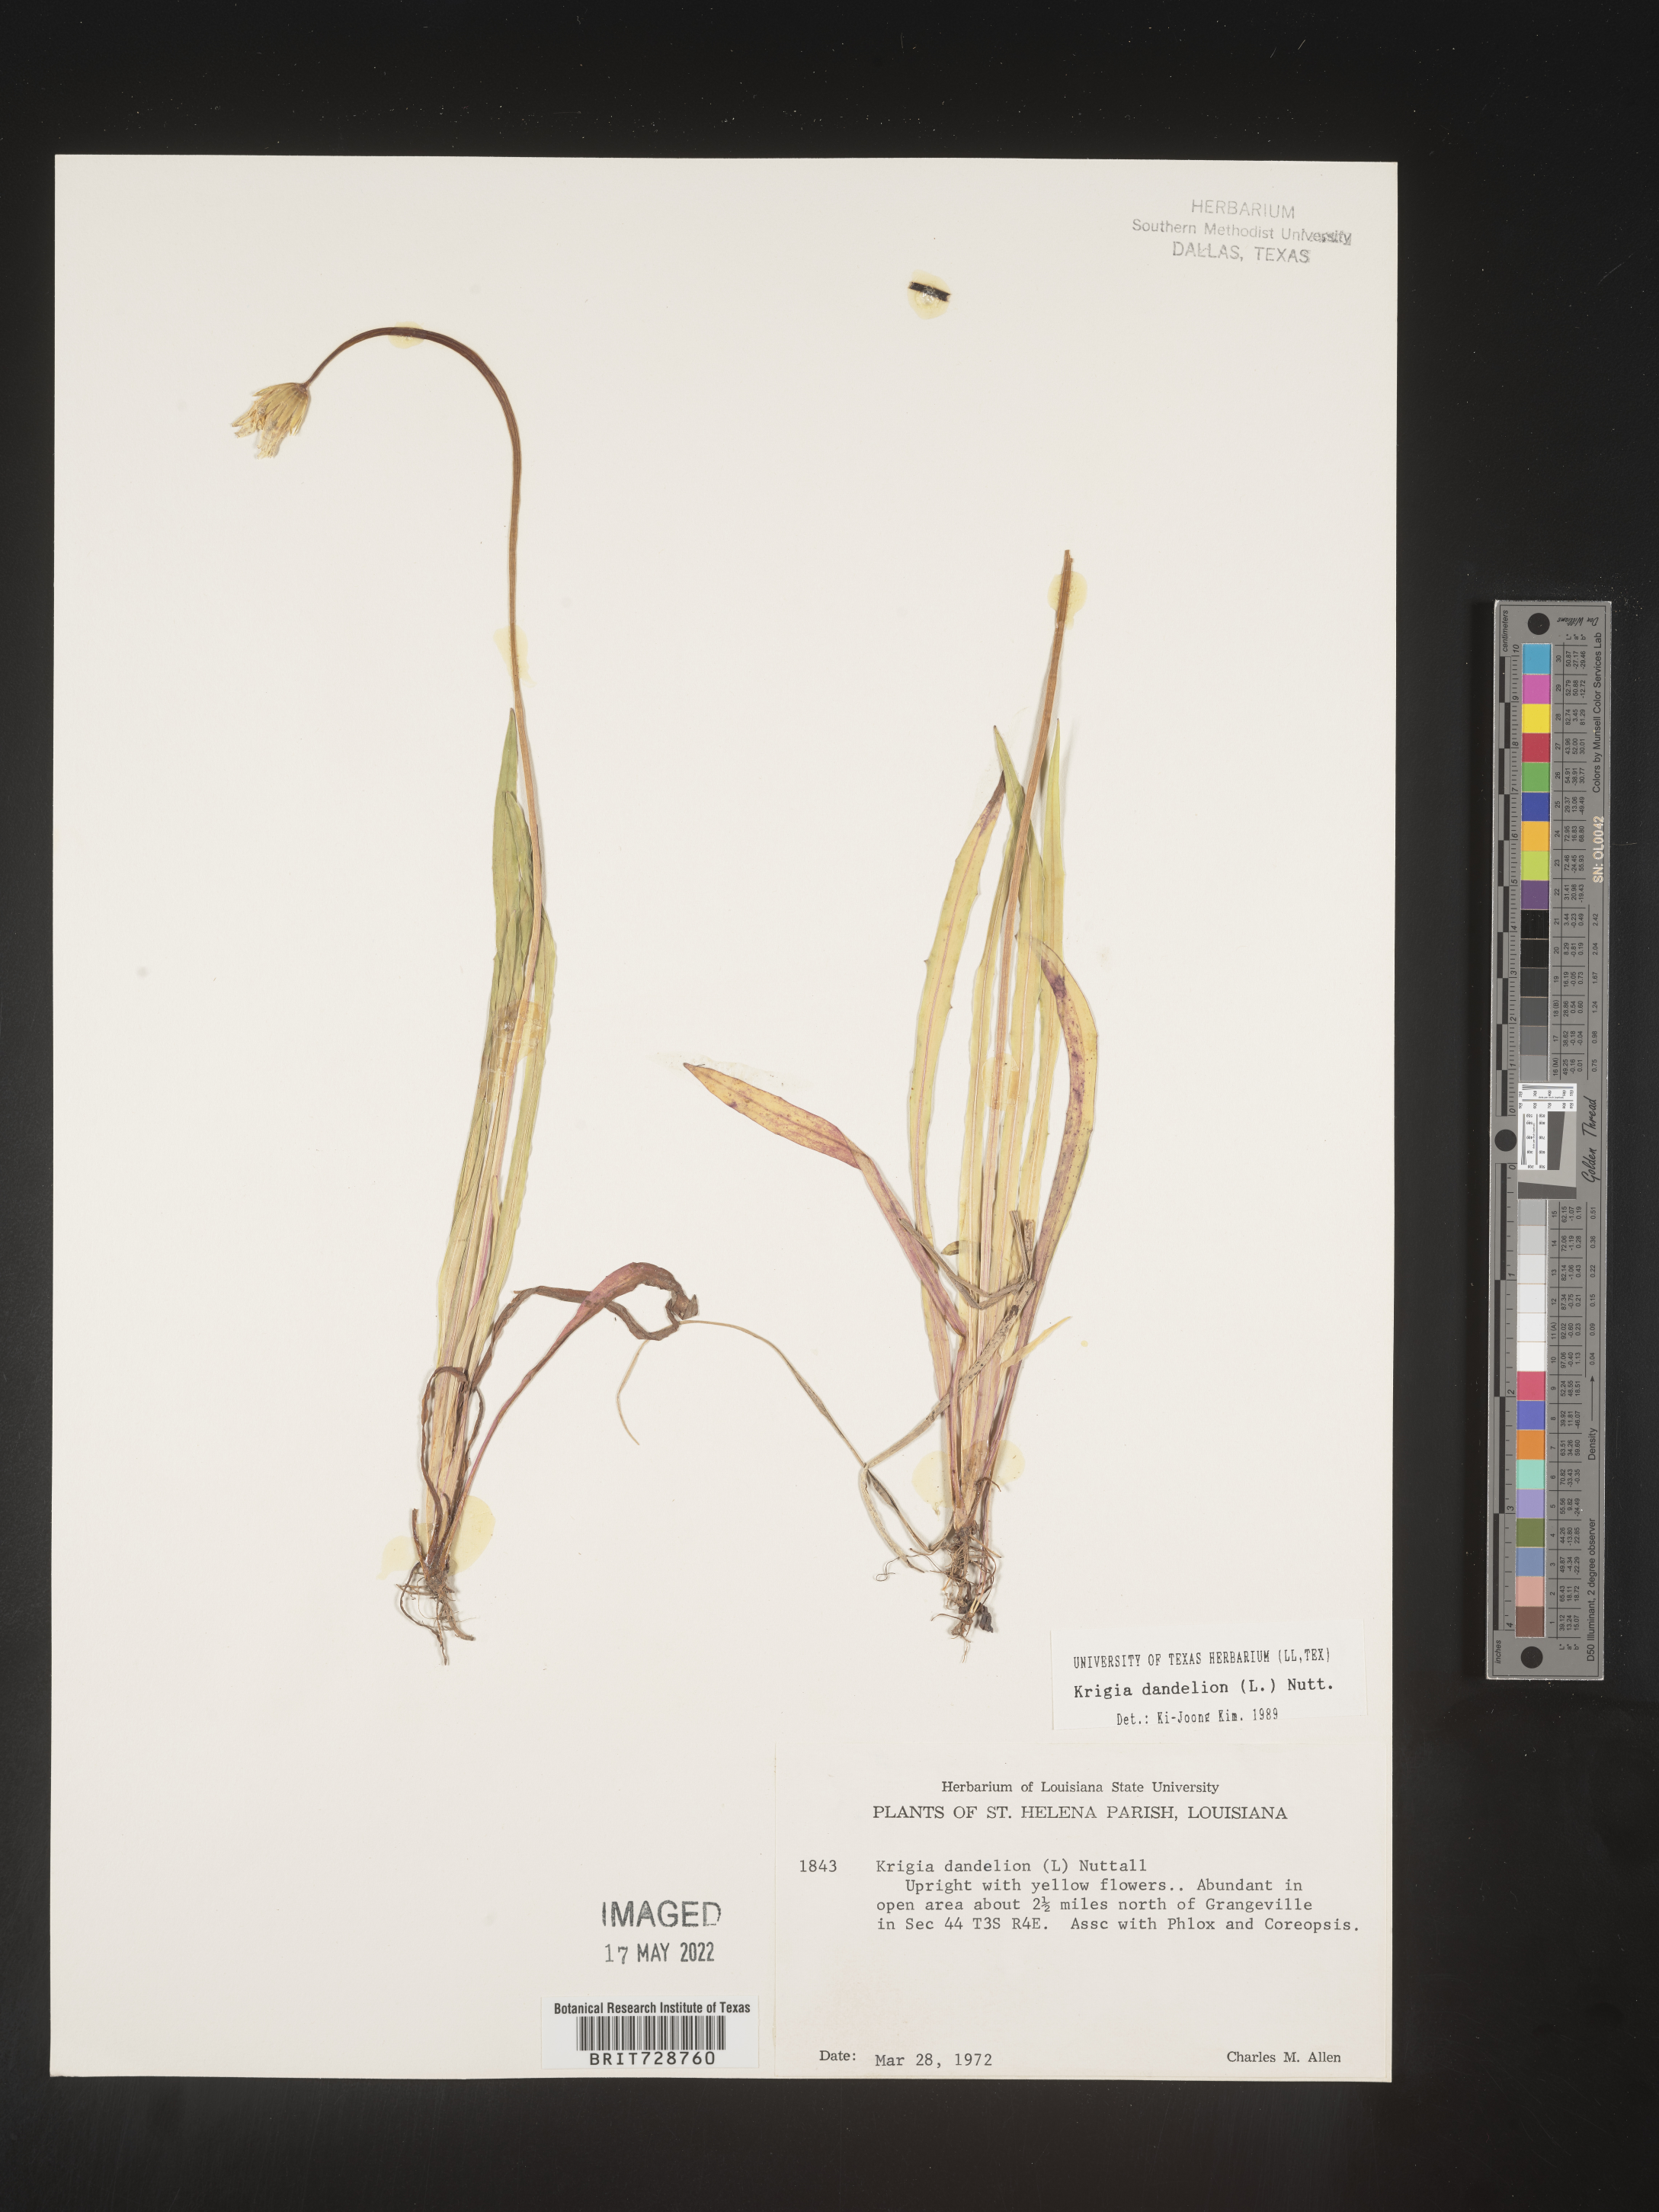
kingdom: Plantae
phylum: Tracheophyta
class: Magnoliopsida
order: Asterales
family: Asteraceae
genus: Krigia
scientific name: Krigia dandelion
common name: Colonial dwarf-dandelion
